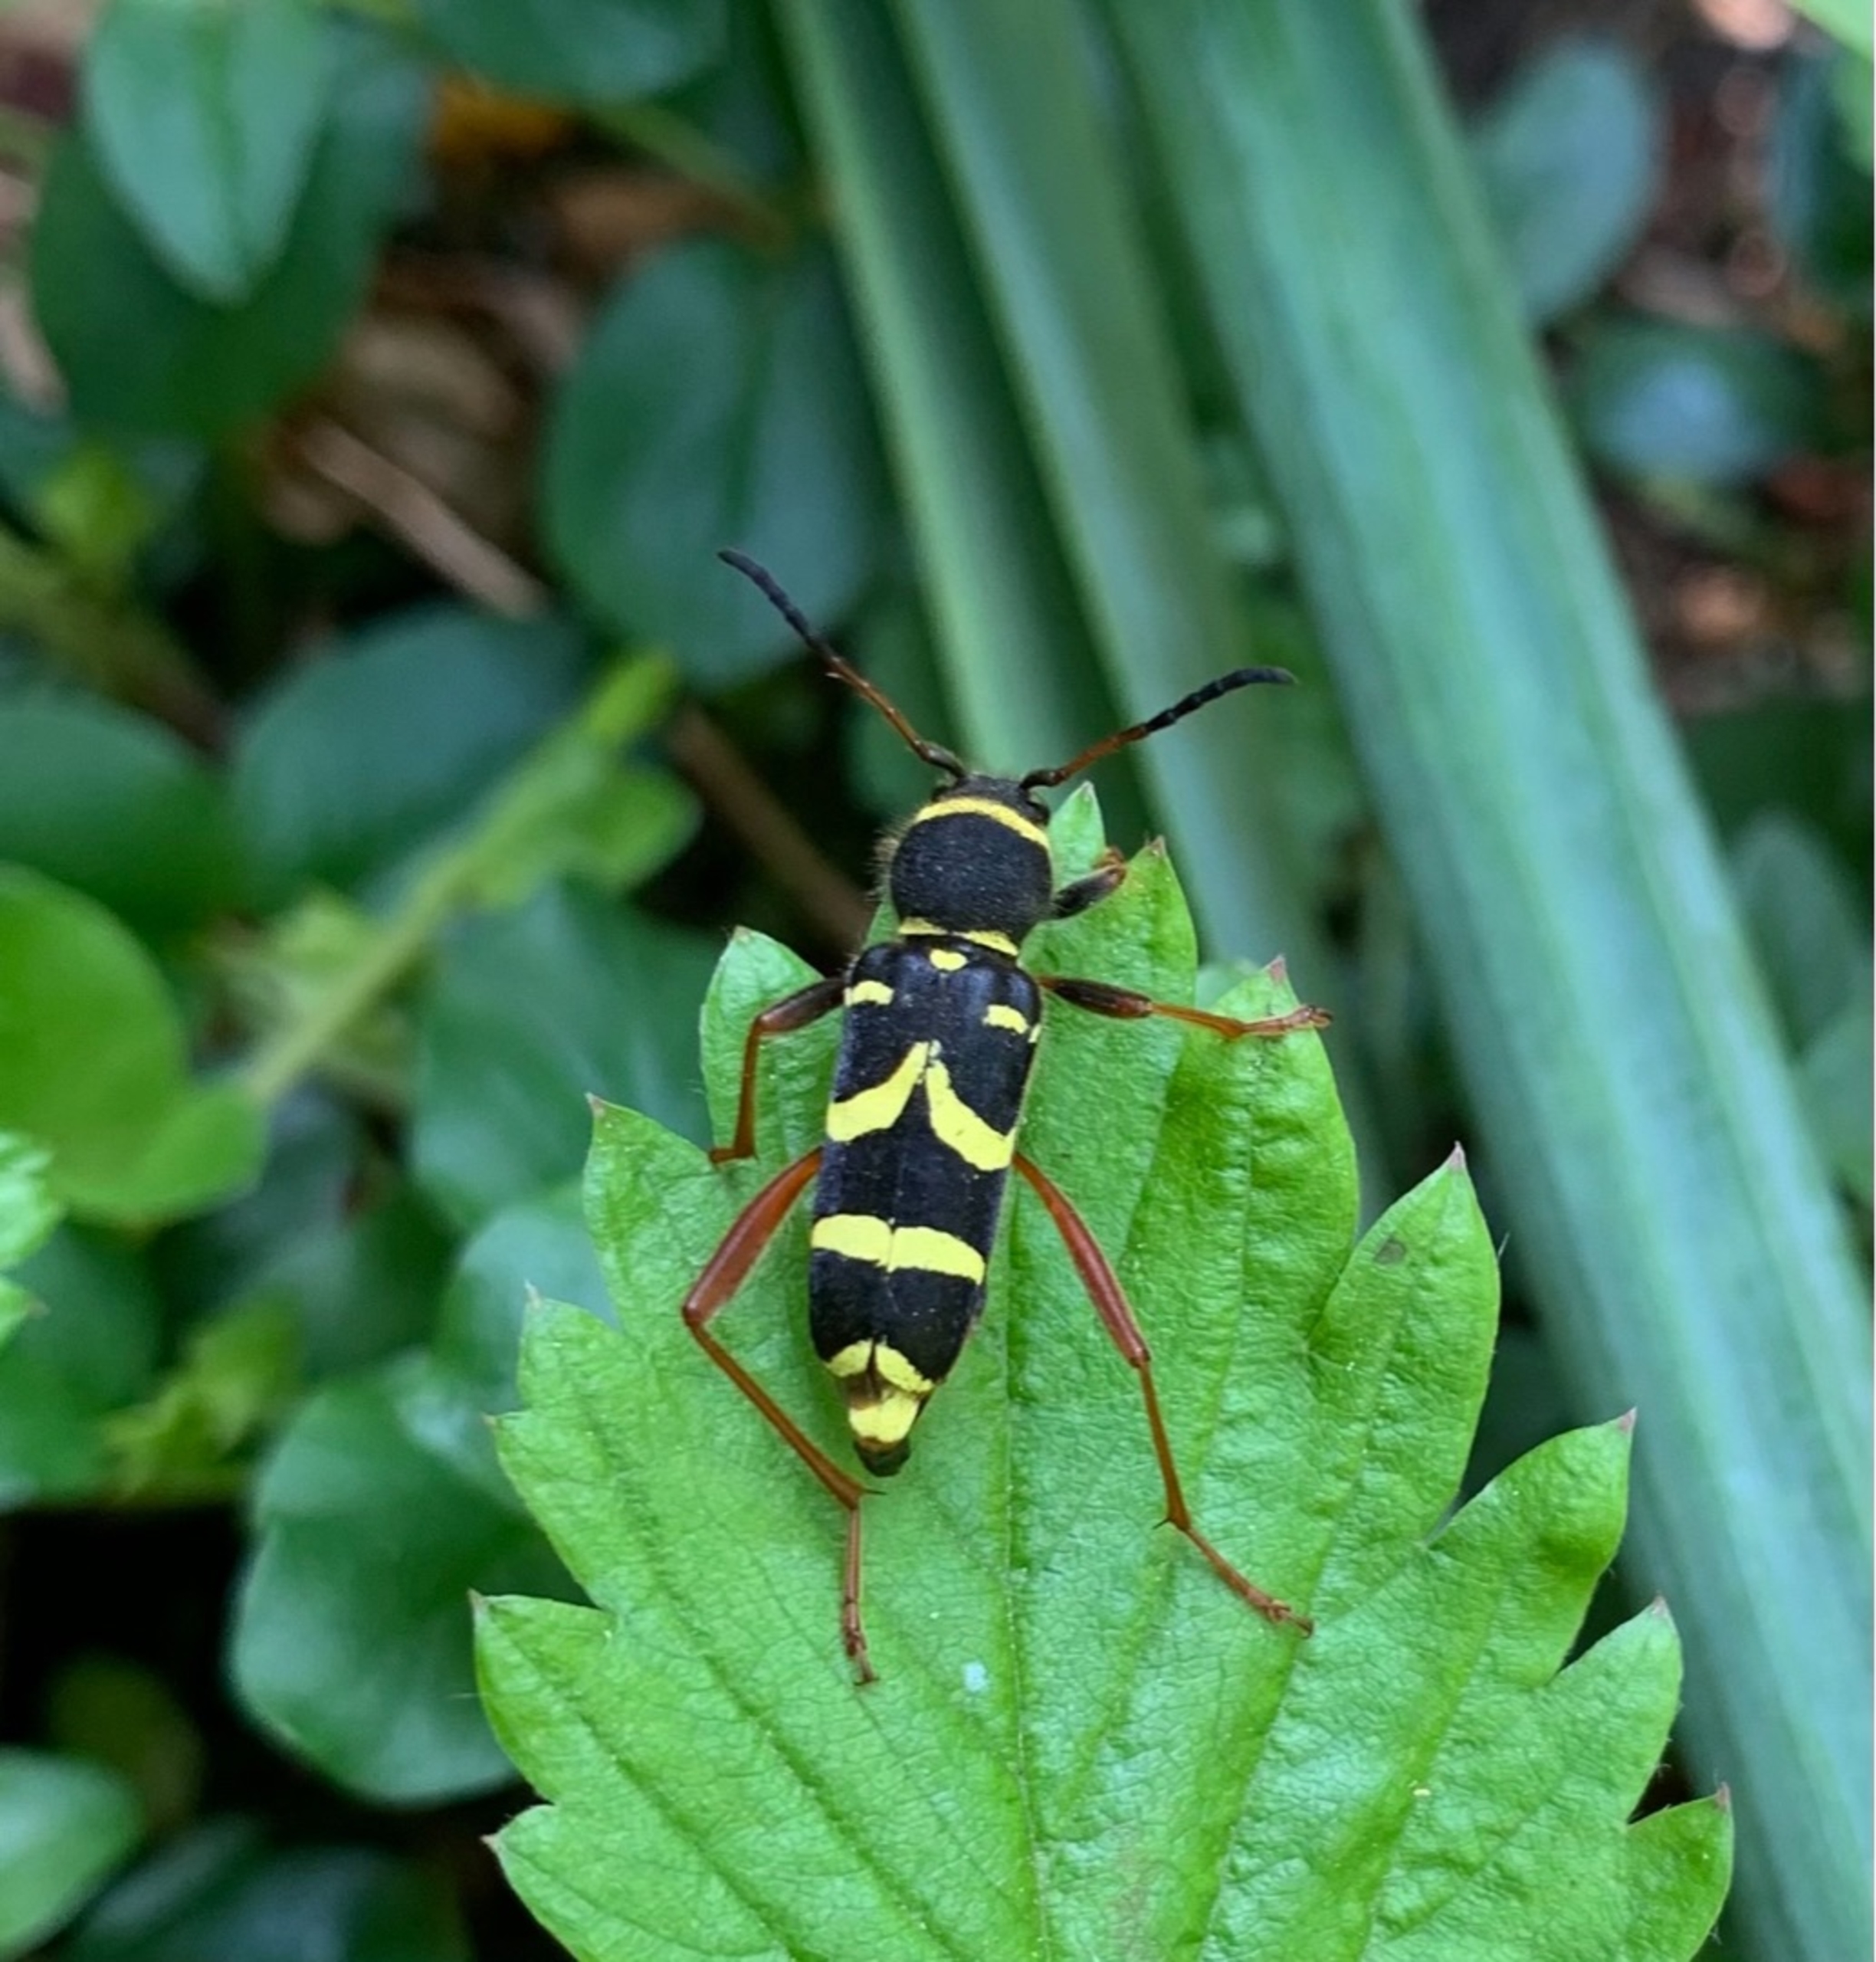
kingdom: Animalia
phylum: Arthropoda
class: Insecta
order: Coleoptera
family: Cerambycidae
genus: Clytus
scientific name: Clytus arietis
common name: Lille hvepsebuk
